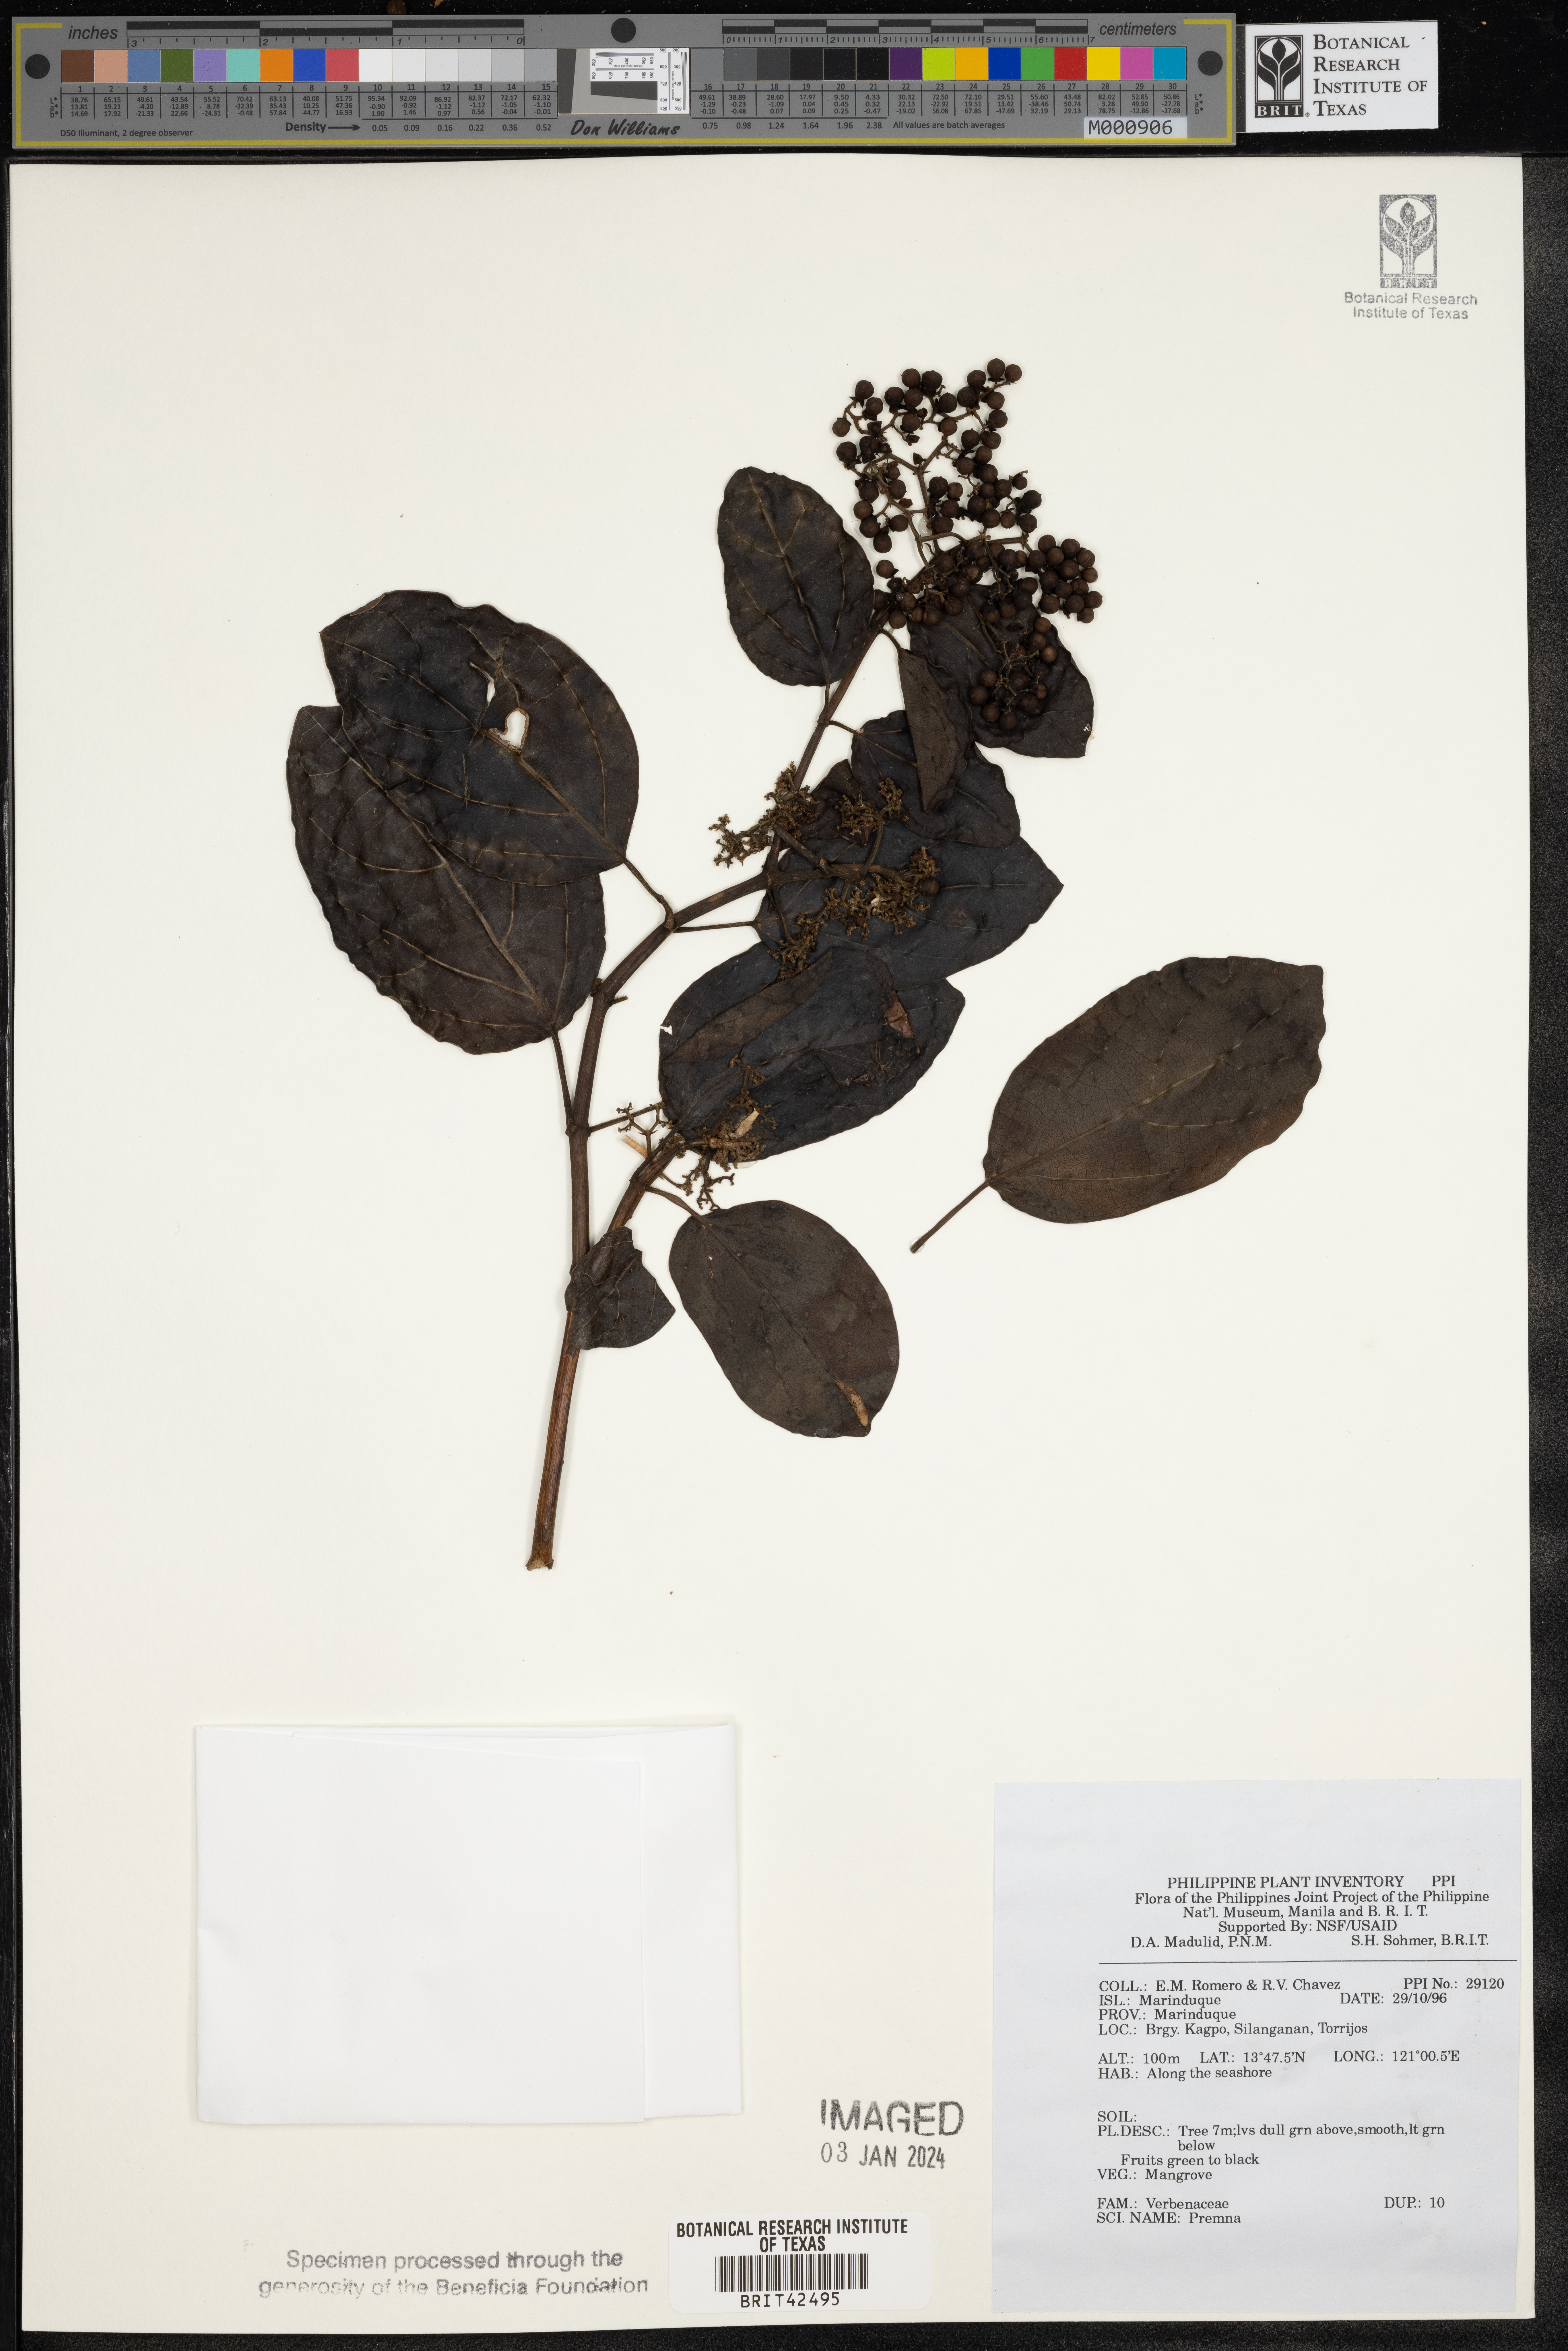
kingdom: Plantae
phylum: Tracheophyta
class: Magnoliopsida
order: Lamiales
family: Lamiaceae
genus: Premna
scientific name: Premna
